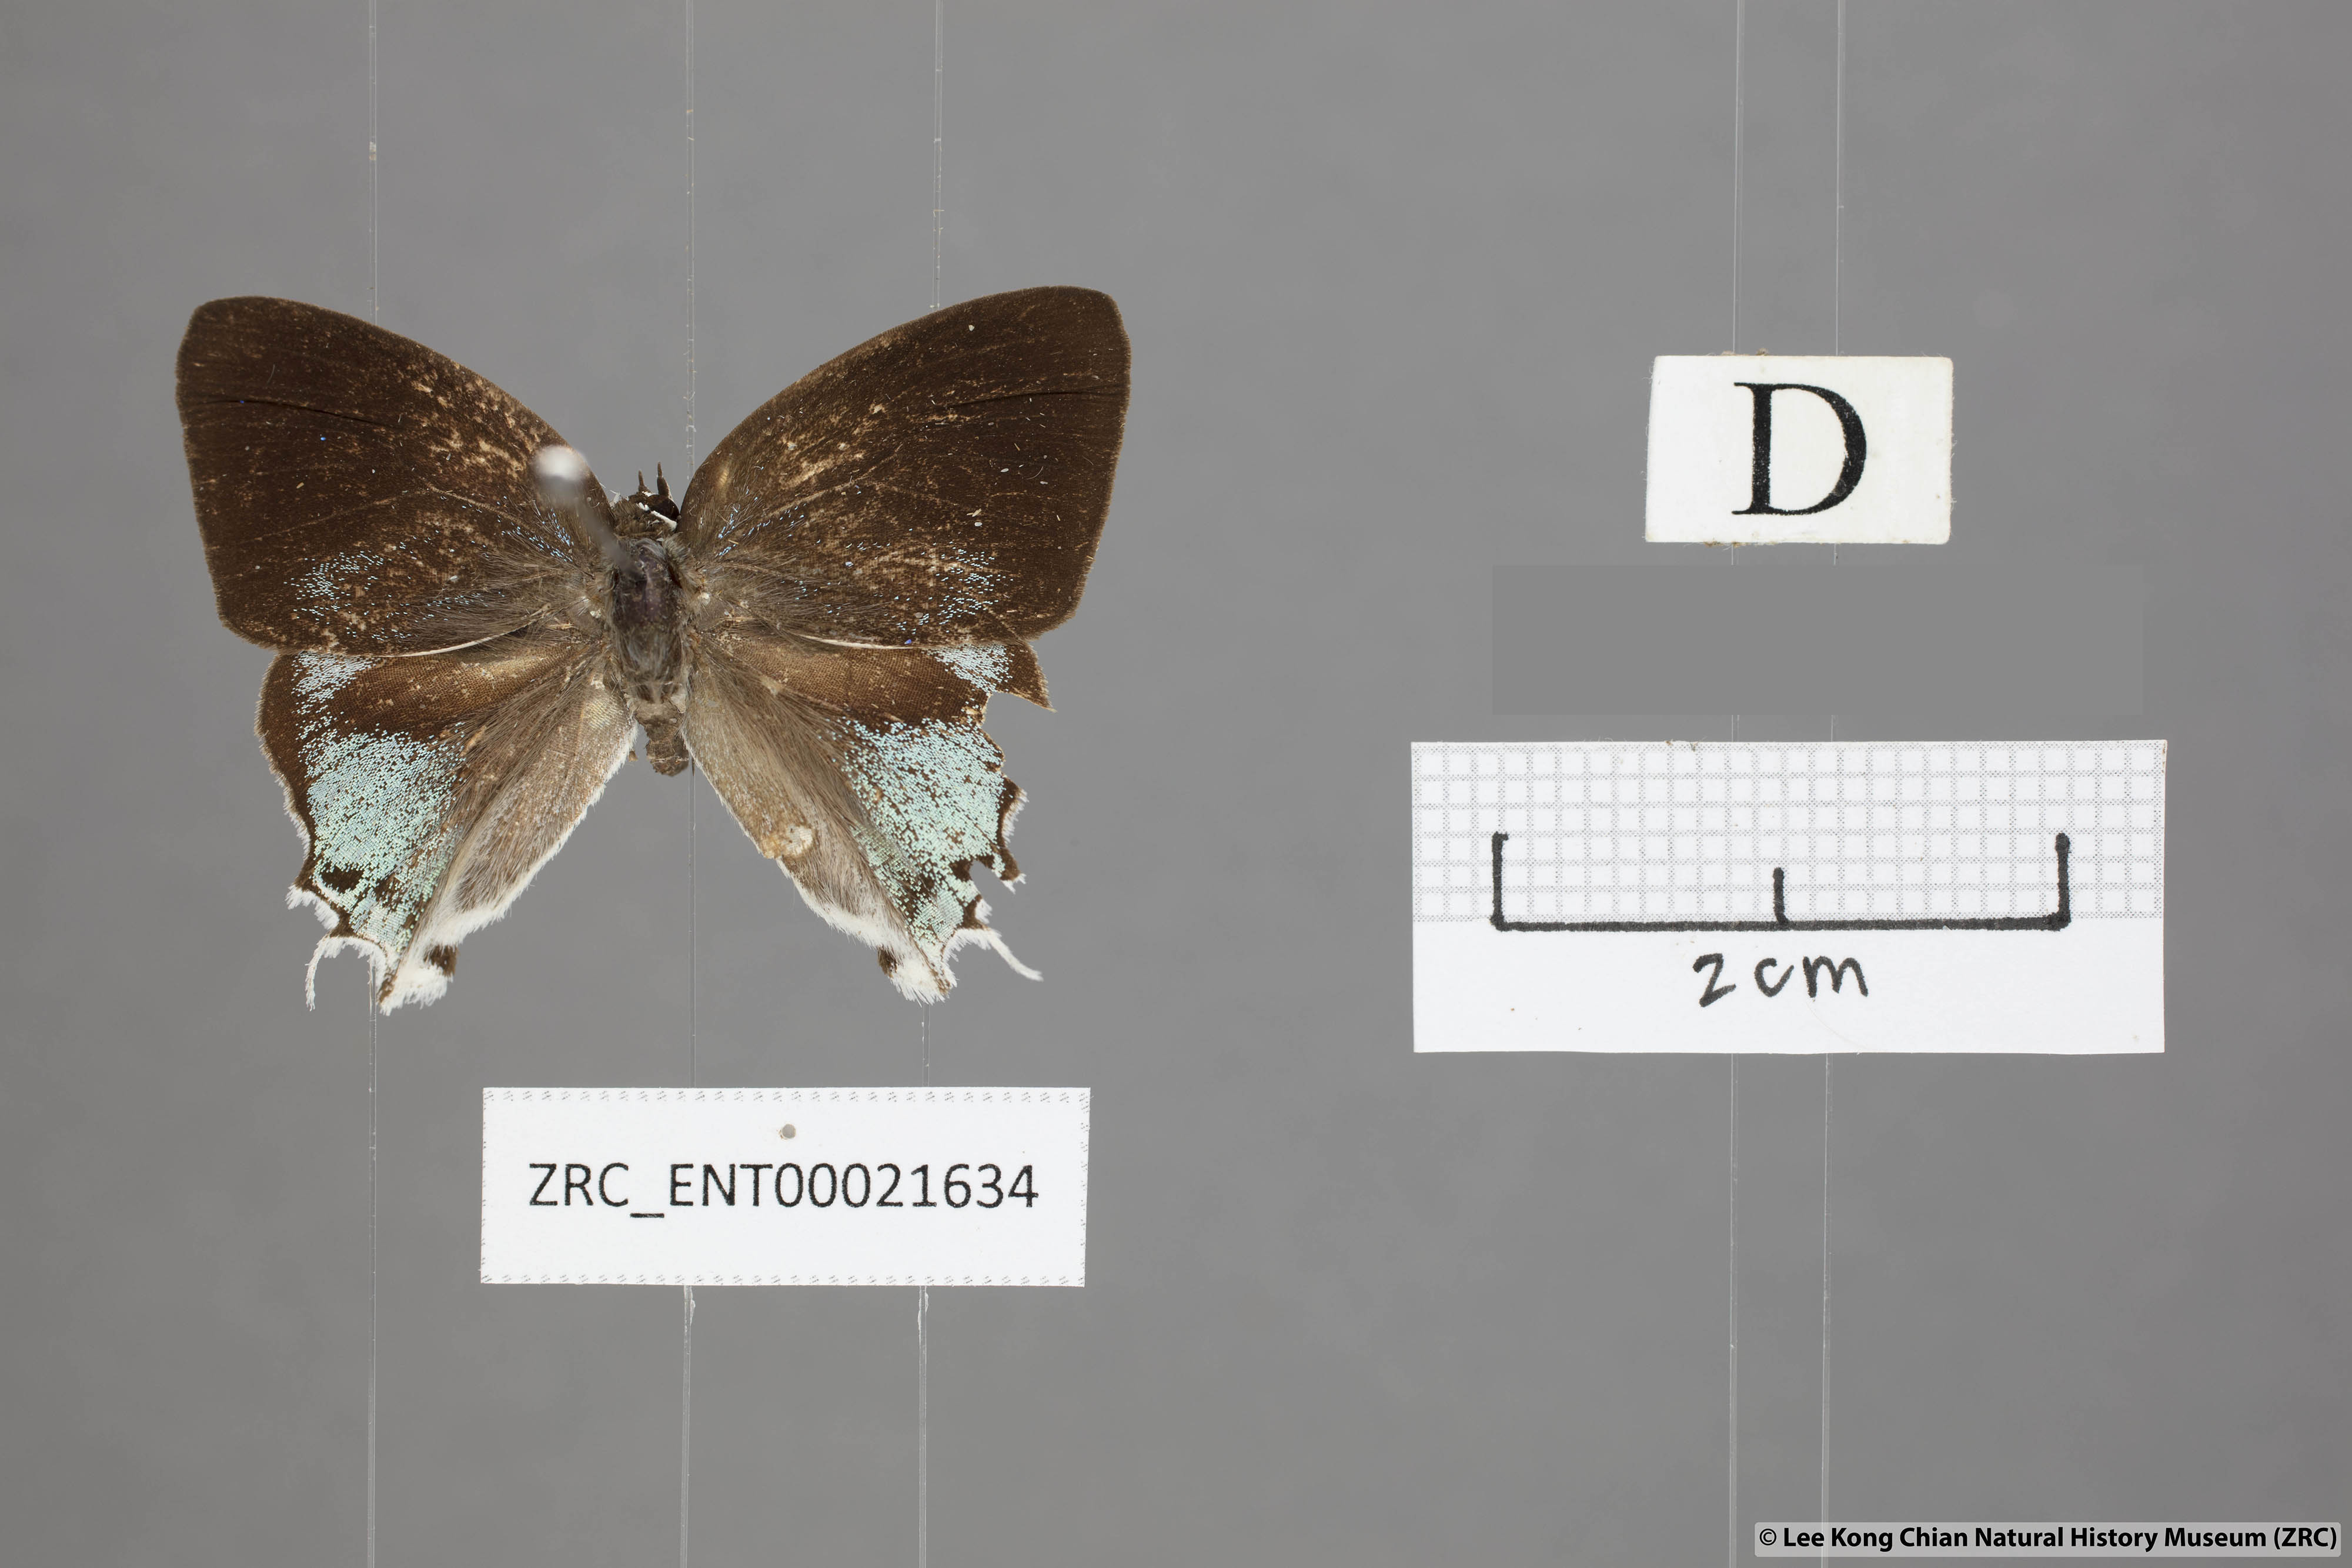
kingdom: Animalia
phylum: Arthropoda
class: Insecta
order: Lepidoptera
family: Lycaenidae
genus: Manto
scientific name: Manto hypoleuca
